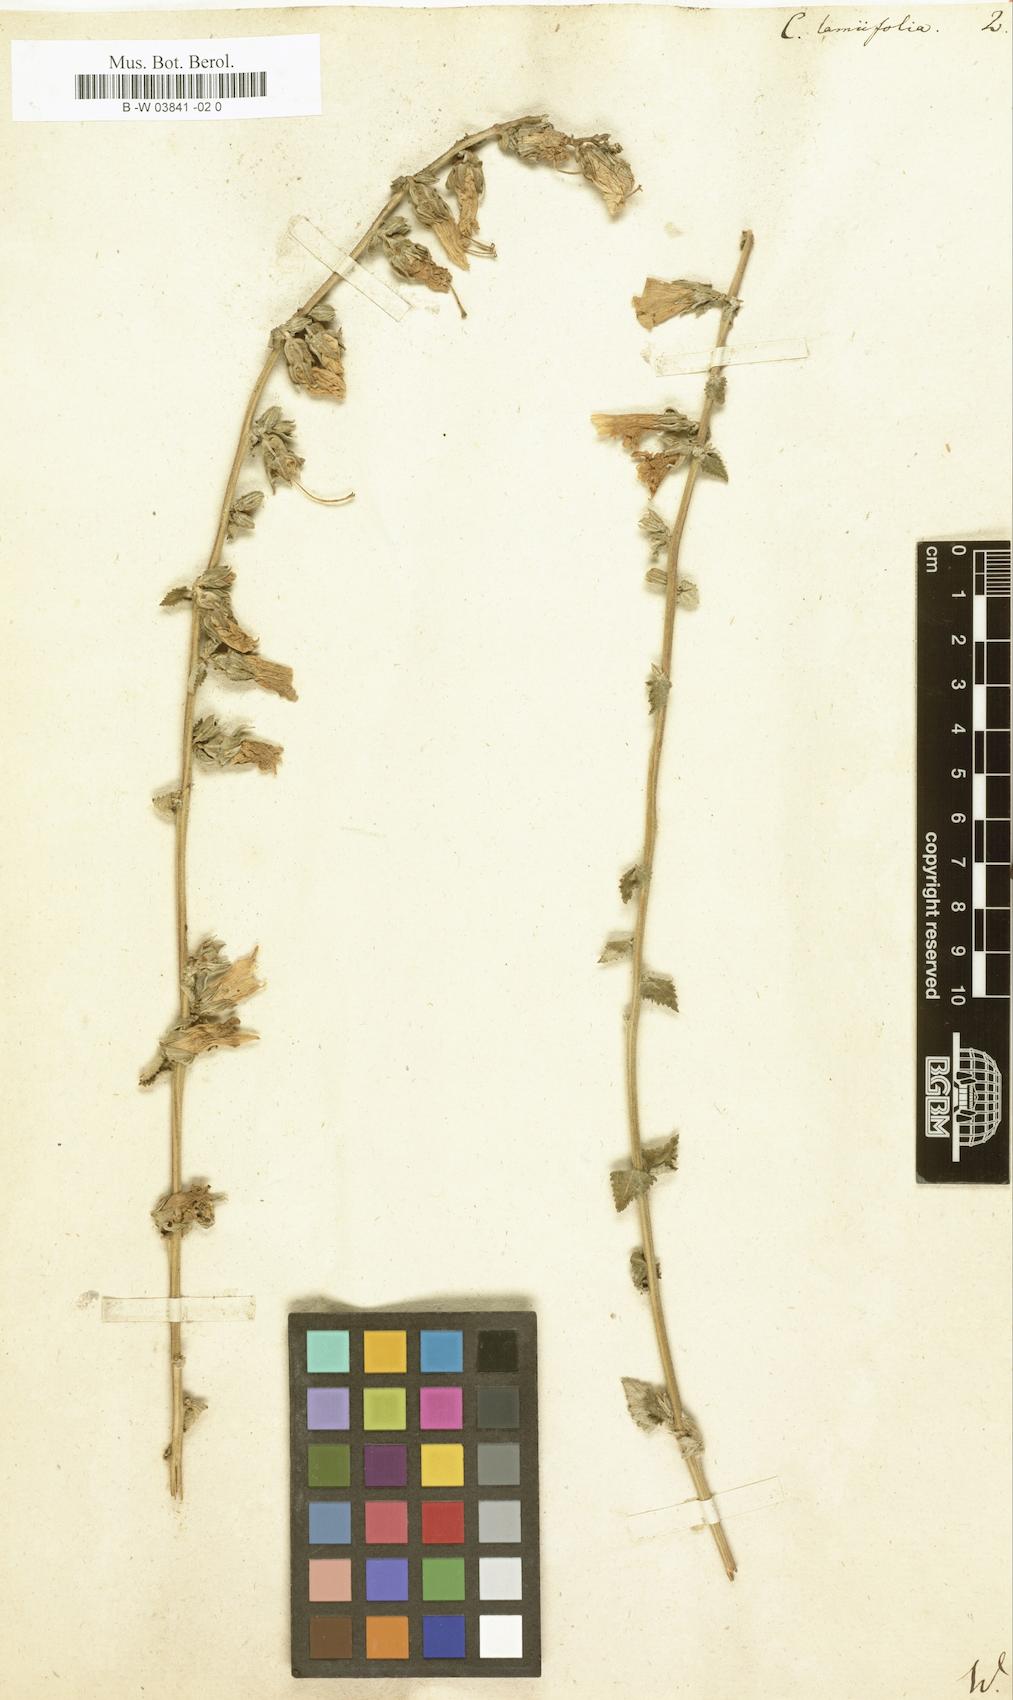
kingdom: Plantae
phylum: Tracheophyta
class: Magnoliopsida
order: Asterales
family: Campanulaceae
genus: Campanula
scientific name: Campanula alliariifolia
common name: Cornish bellflower
